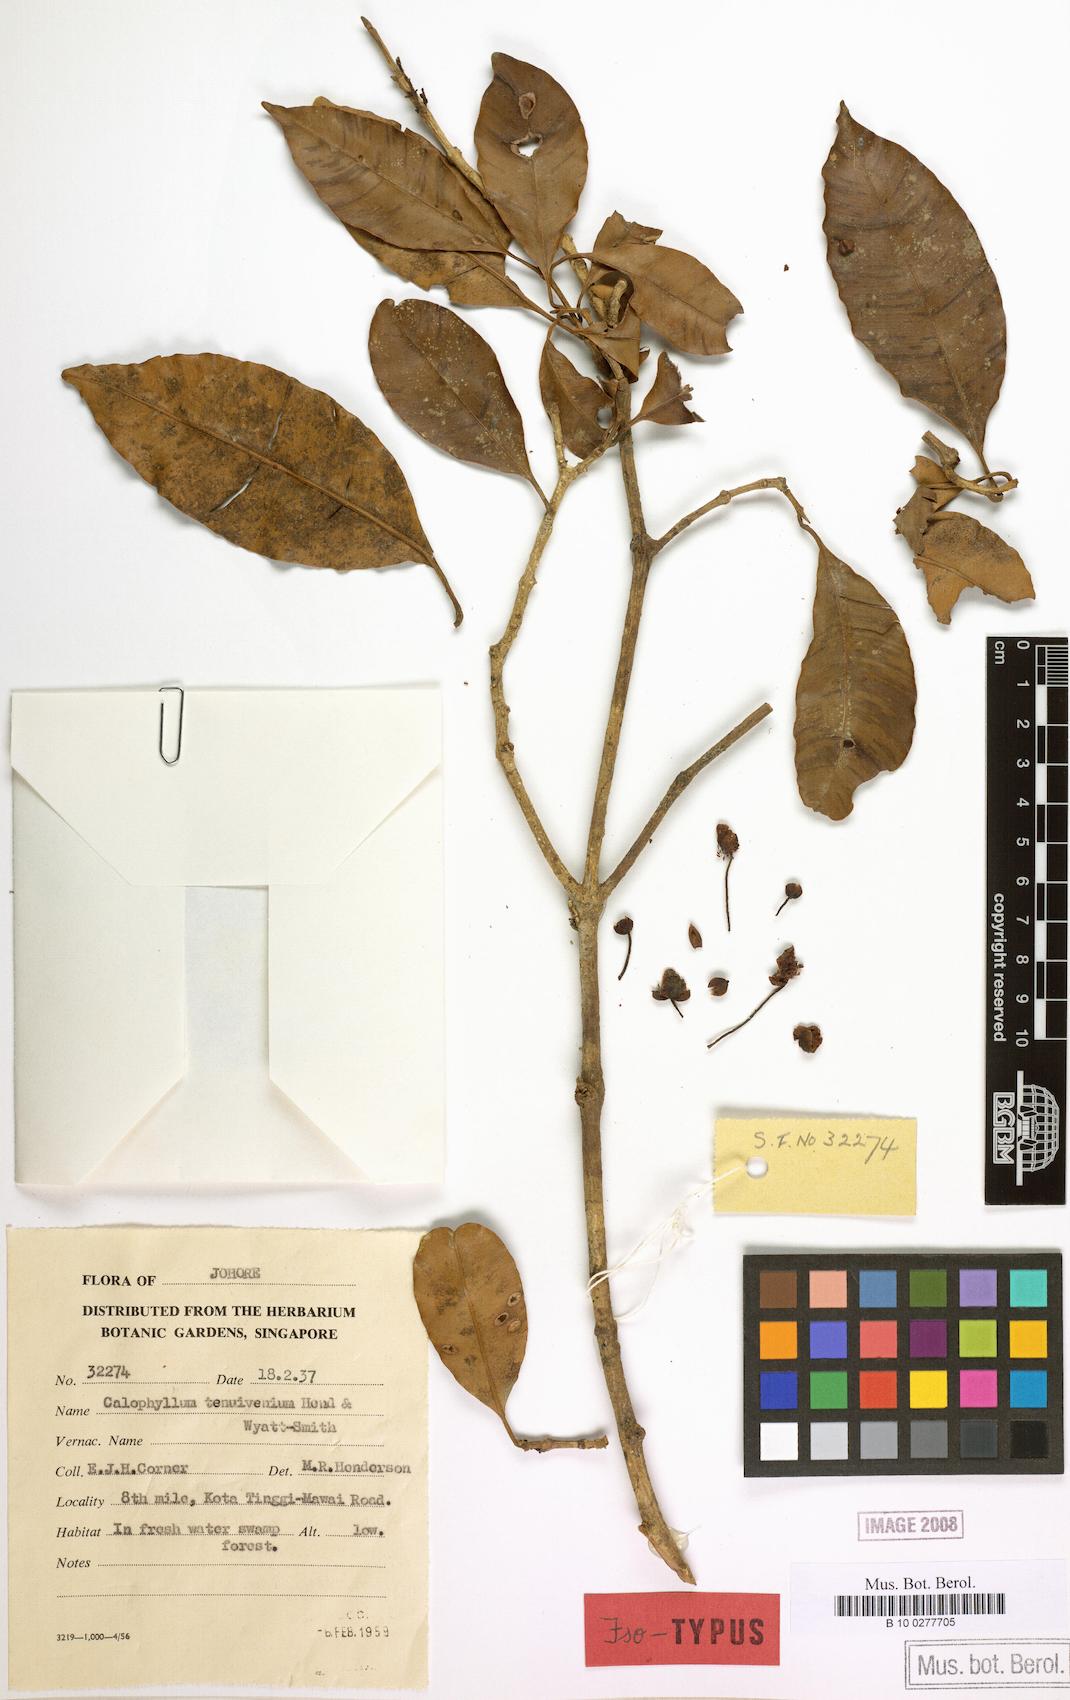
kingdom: Plantae
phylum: Tracheophyta
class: Magnoliopsida
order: Malpighiales
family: Calophyllaceae
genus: Calophyllum
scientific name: Calophyllum venulosum
